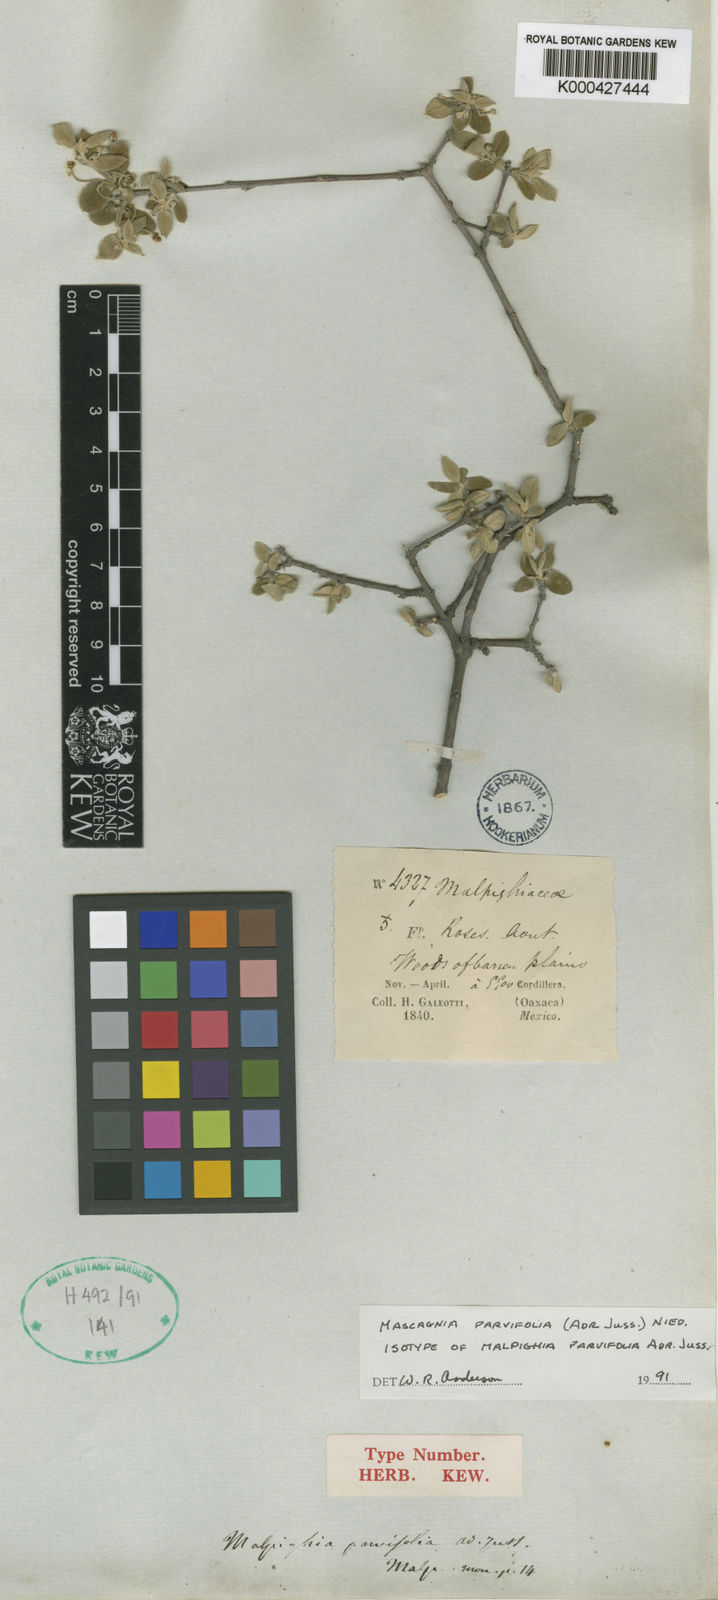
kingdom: Plantae
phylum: Tracheophyta
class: Magnoliopsida
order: Malpighiales
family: Malpighiaceae
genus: Calcicola
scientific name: Calcicola parvifolia
